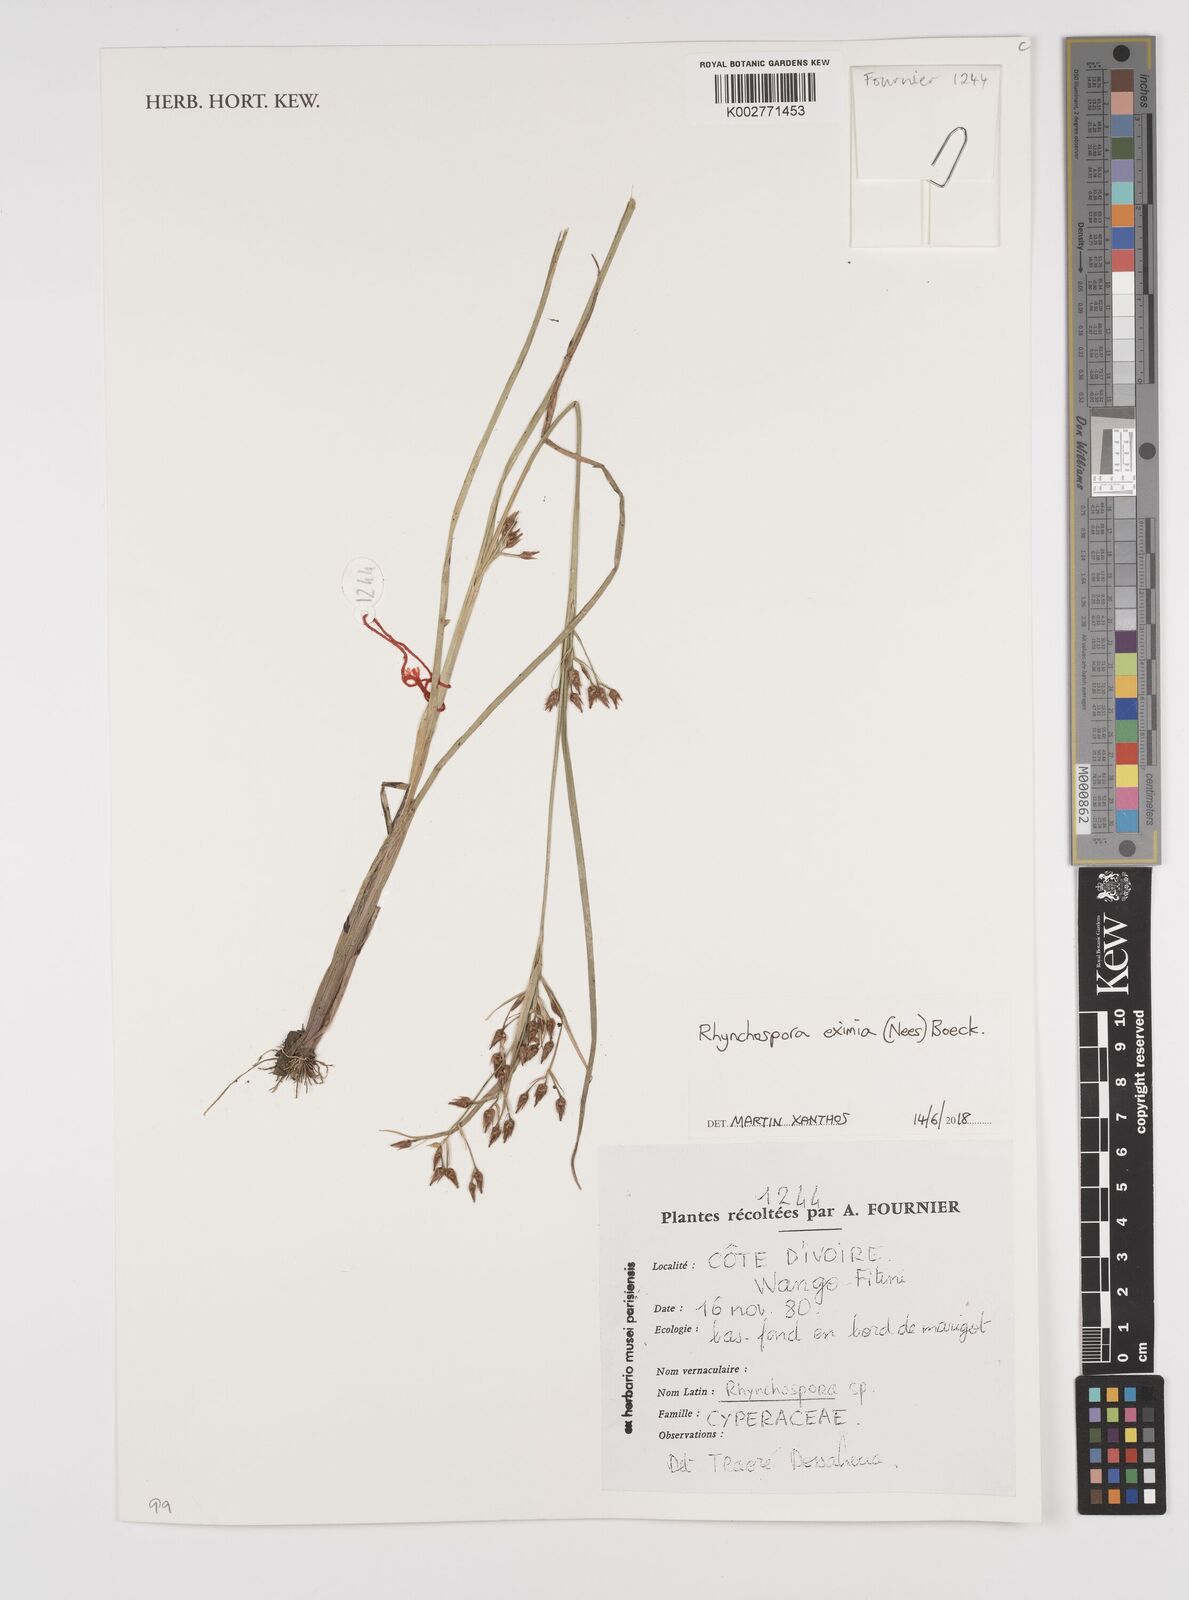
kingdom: Plantae
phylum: Tracheophyta
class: Liliopsida
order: Poales
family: Cyperaceae
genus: Rhynchospora
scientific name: Rhynchospora eximia
